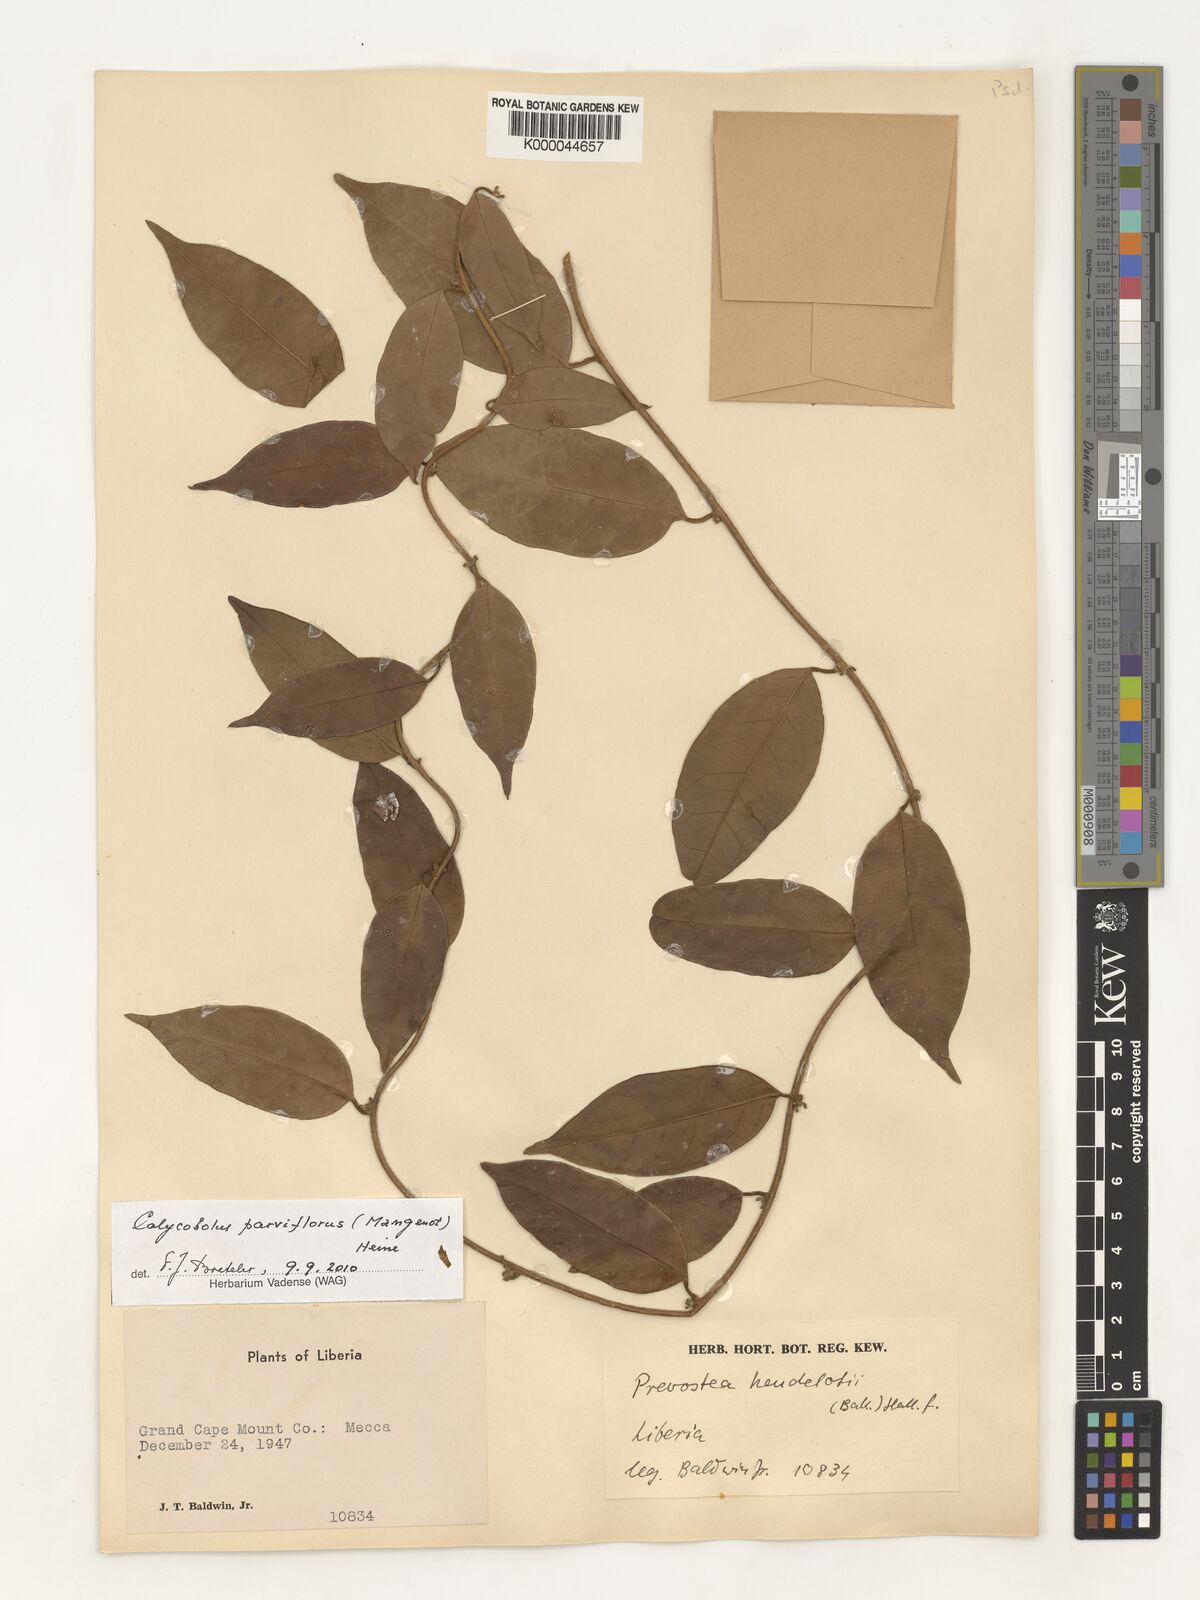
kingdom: Plantae
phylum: Tracheophyta
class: Magnoliopsida
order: Solanales
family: Convolvulaceae
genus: Calycobolus
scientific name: Calycobolus parviflorus
